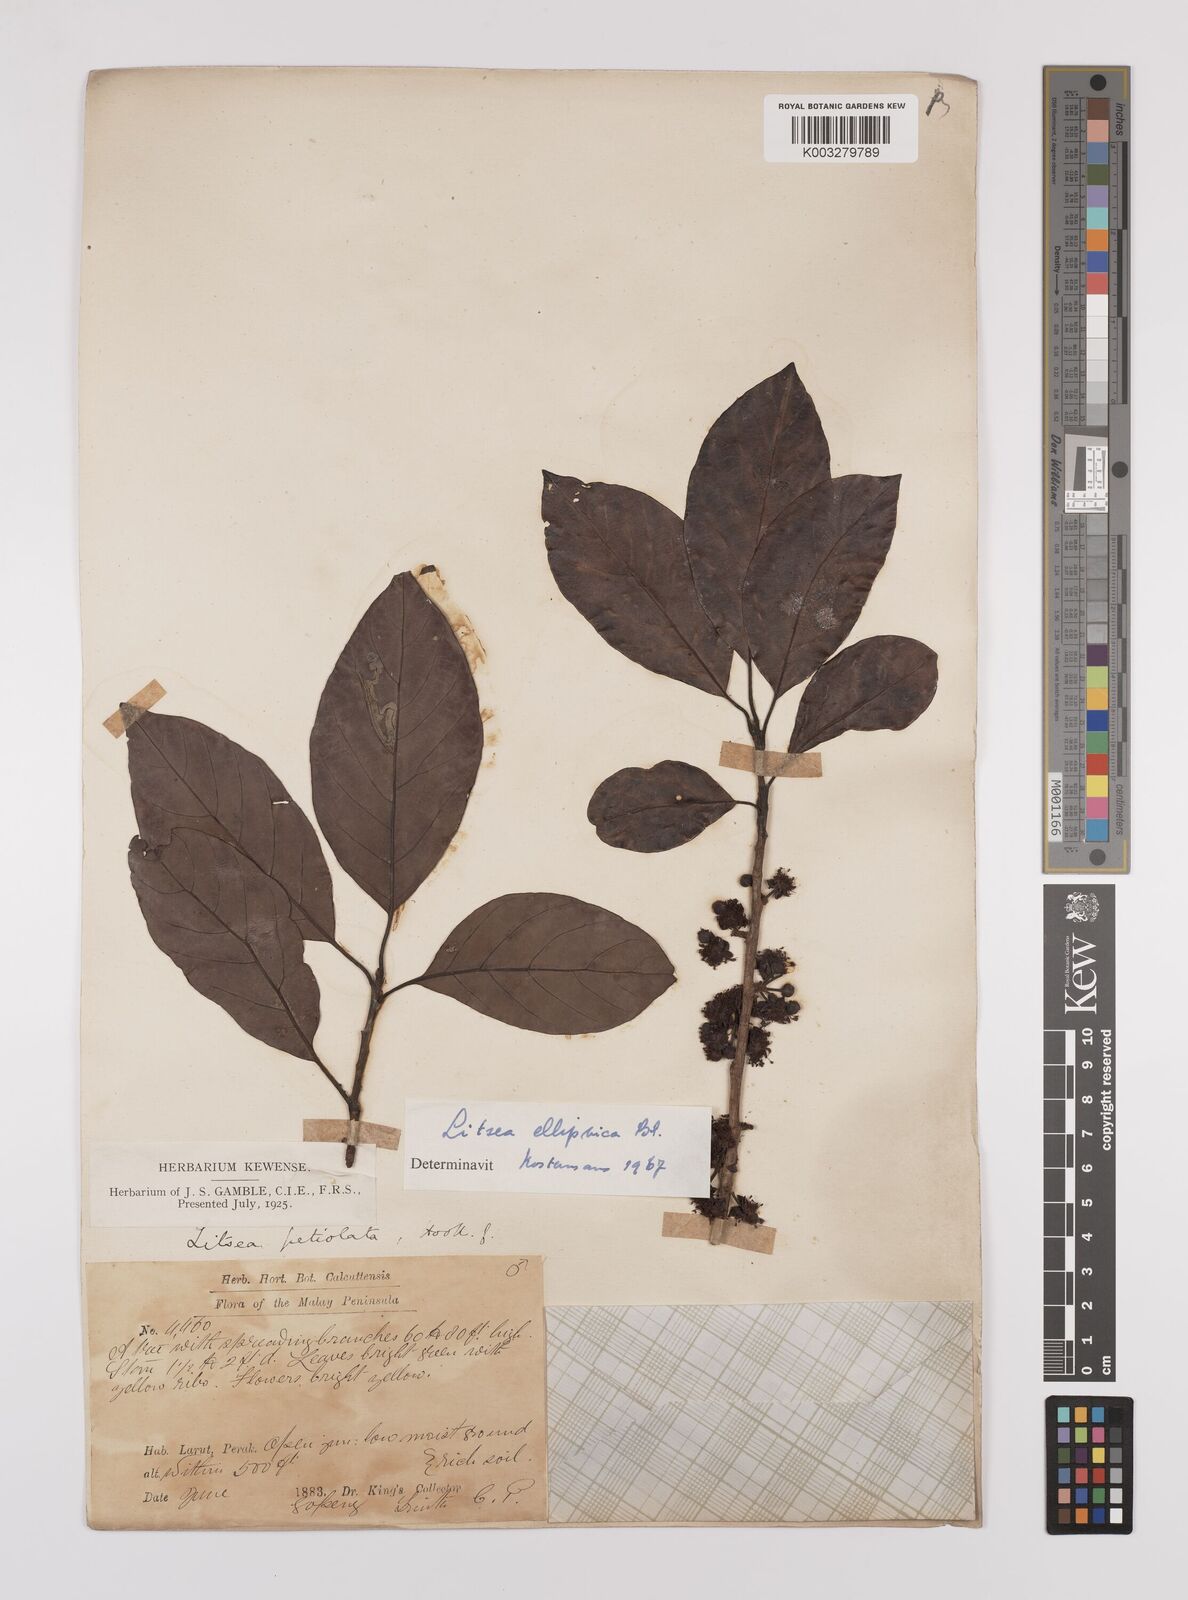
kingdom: Plantae
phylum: Tracheophyta
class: Magnoliopsida
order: Laurales
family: Lauraceae
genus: Litsea
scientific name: Litsea elliptica
